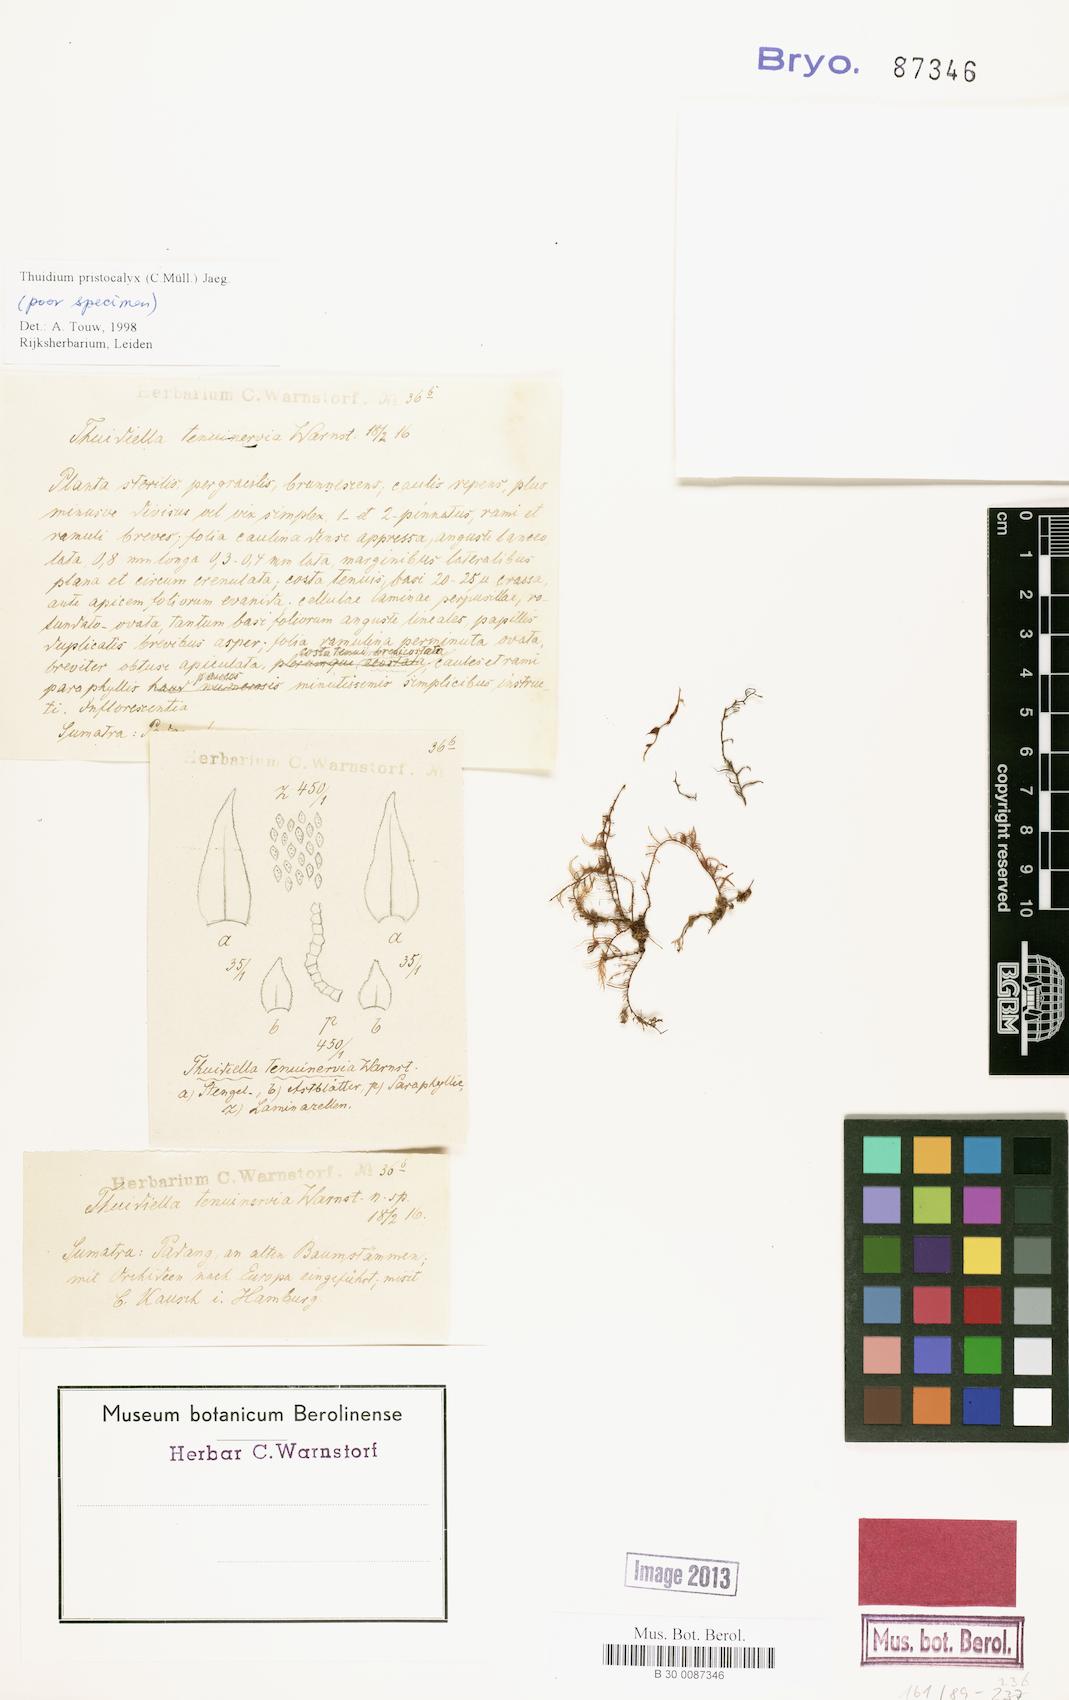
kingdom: Plantae
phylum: Bryophyta
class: Bryopsida
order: Hypnales
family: Thuidiaceae
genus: Thuidium
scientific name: Thuidium pristocalyx
